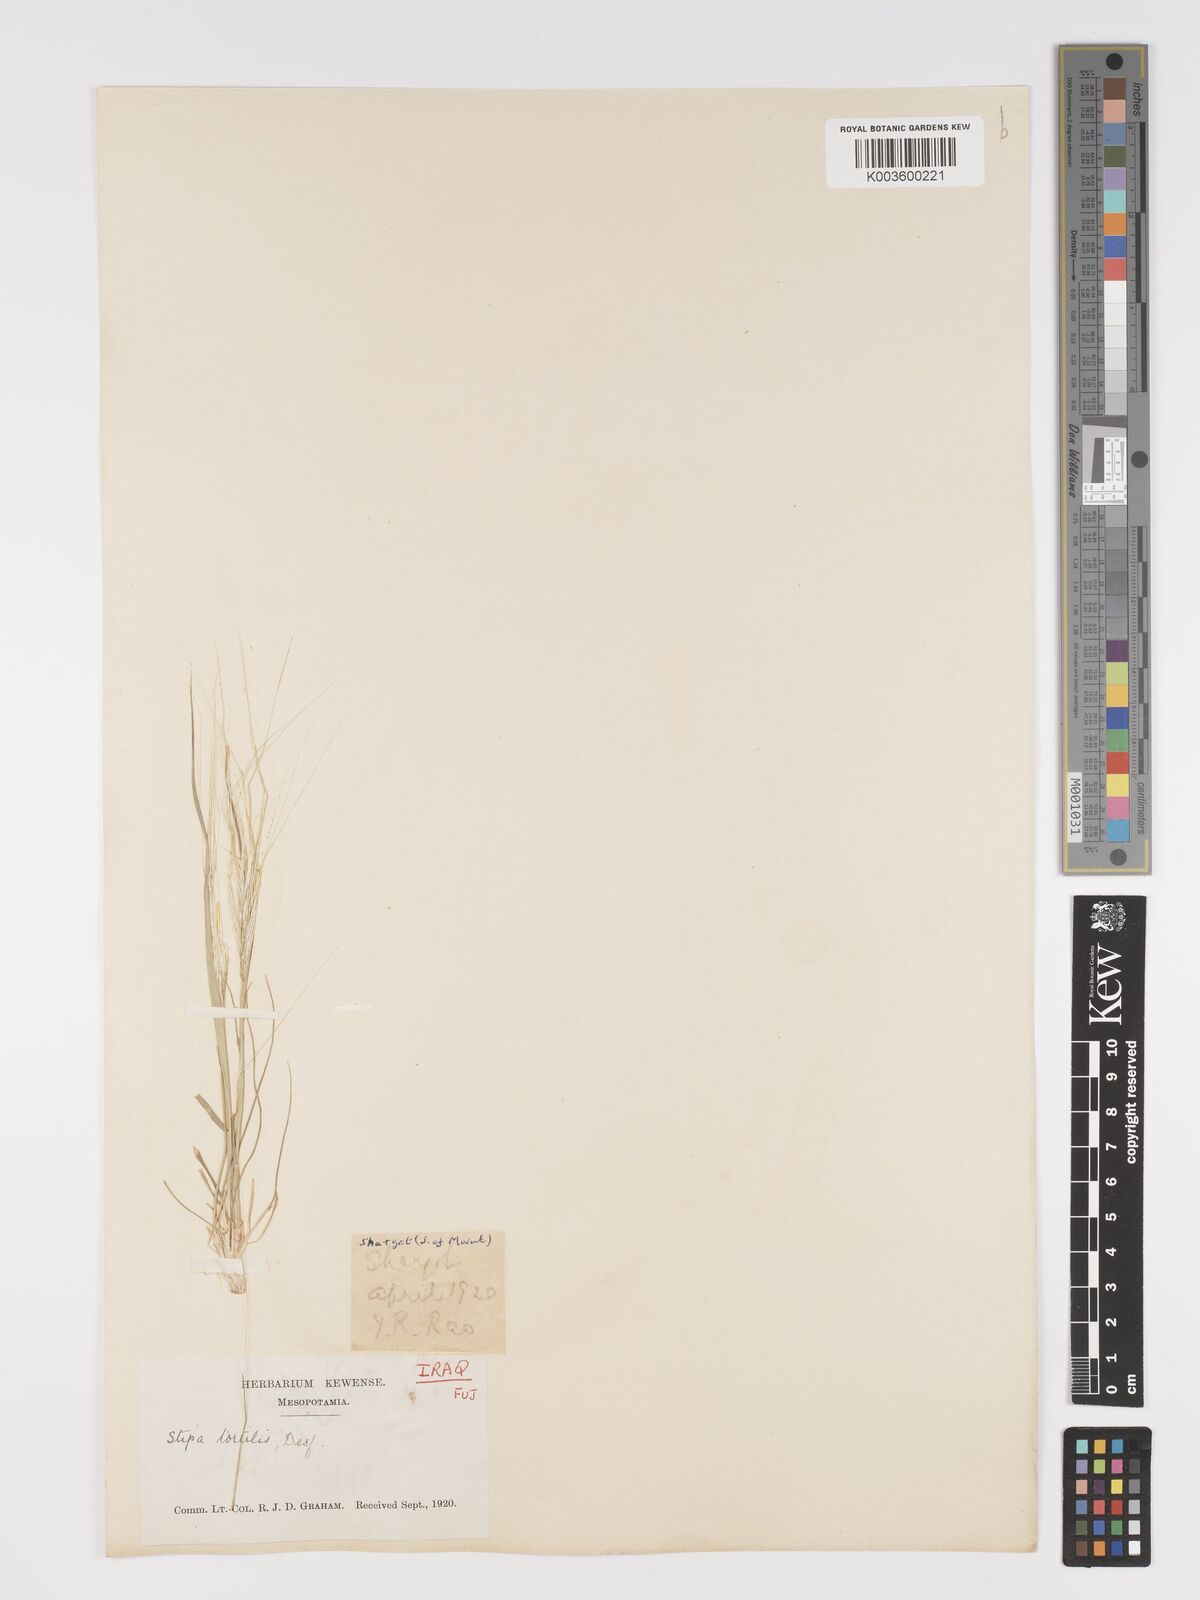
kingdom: Plantae
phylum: Tracheophyta
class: Liliopsida
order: Poales
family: Poaceae
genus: Stipellula
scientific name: Stipellula capensis
